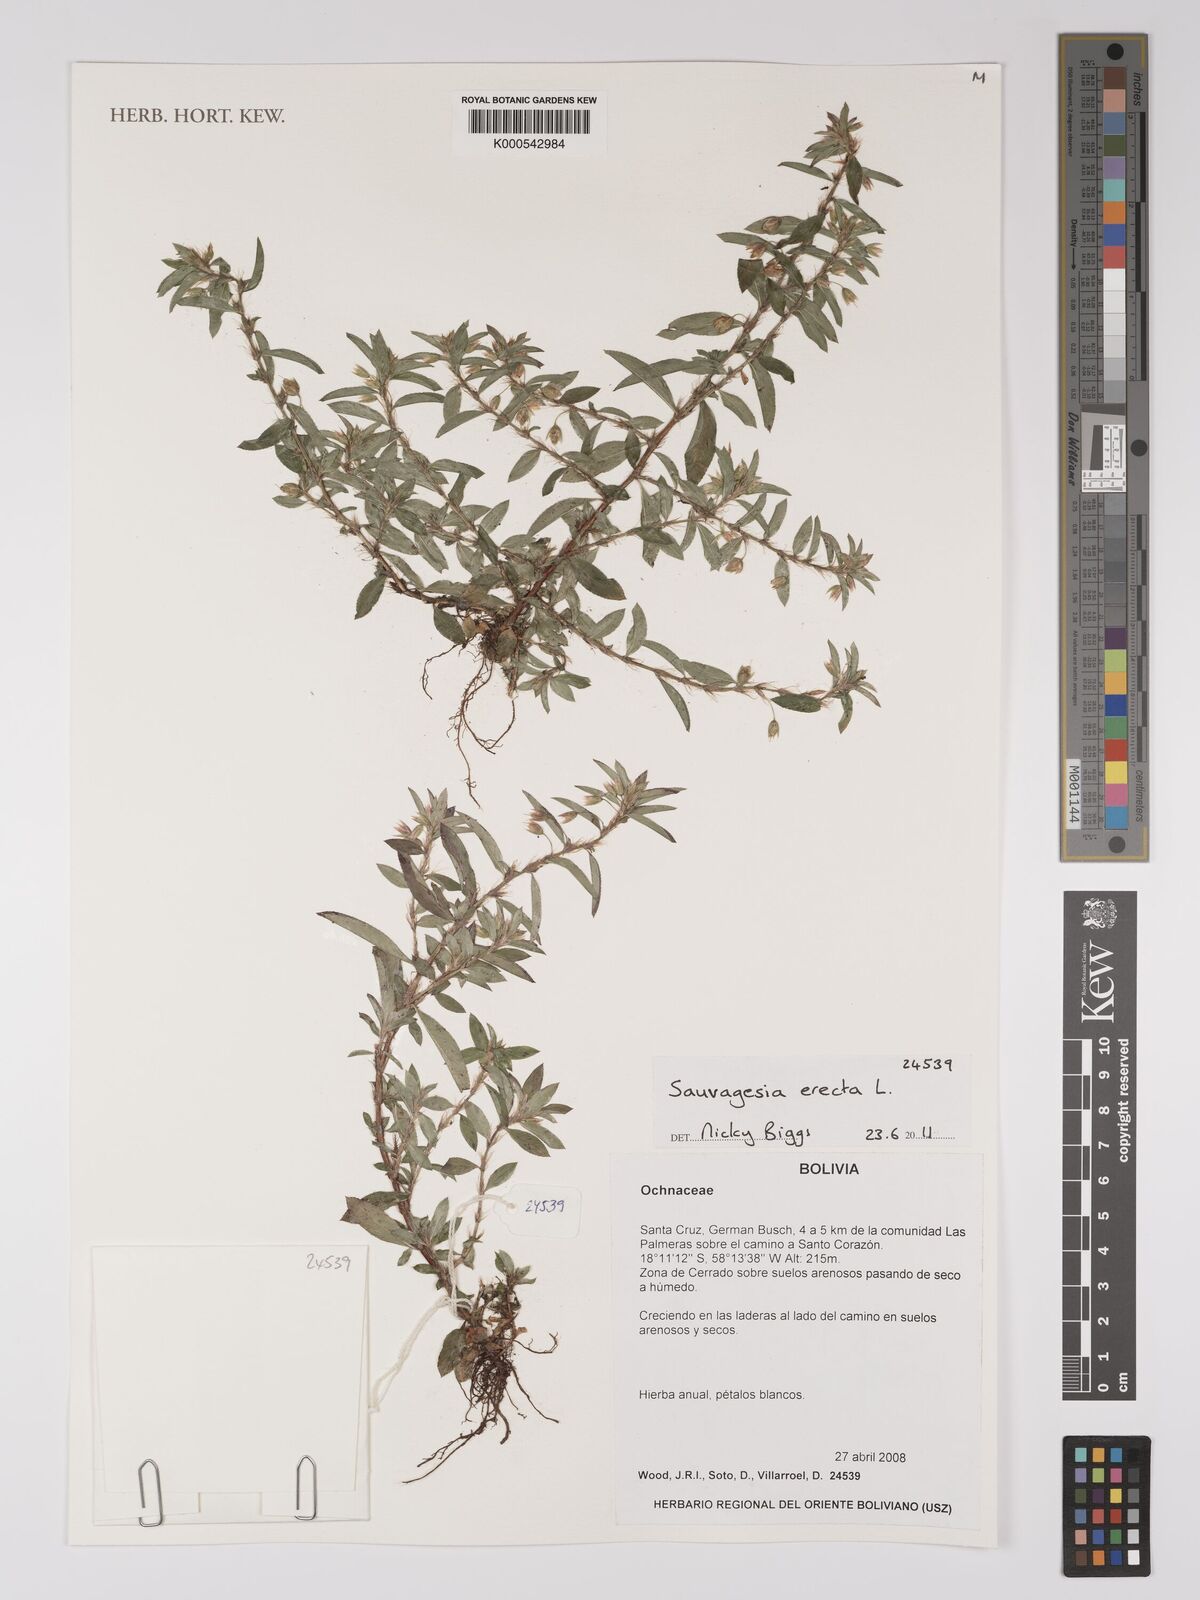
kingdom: Plantae
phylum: Tracheophyta
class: Magnoliopsida
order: Malpighiales
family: Ochnaceae
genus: Sauvagesia
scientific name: Sauvagesia erecta
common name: Creole tea
